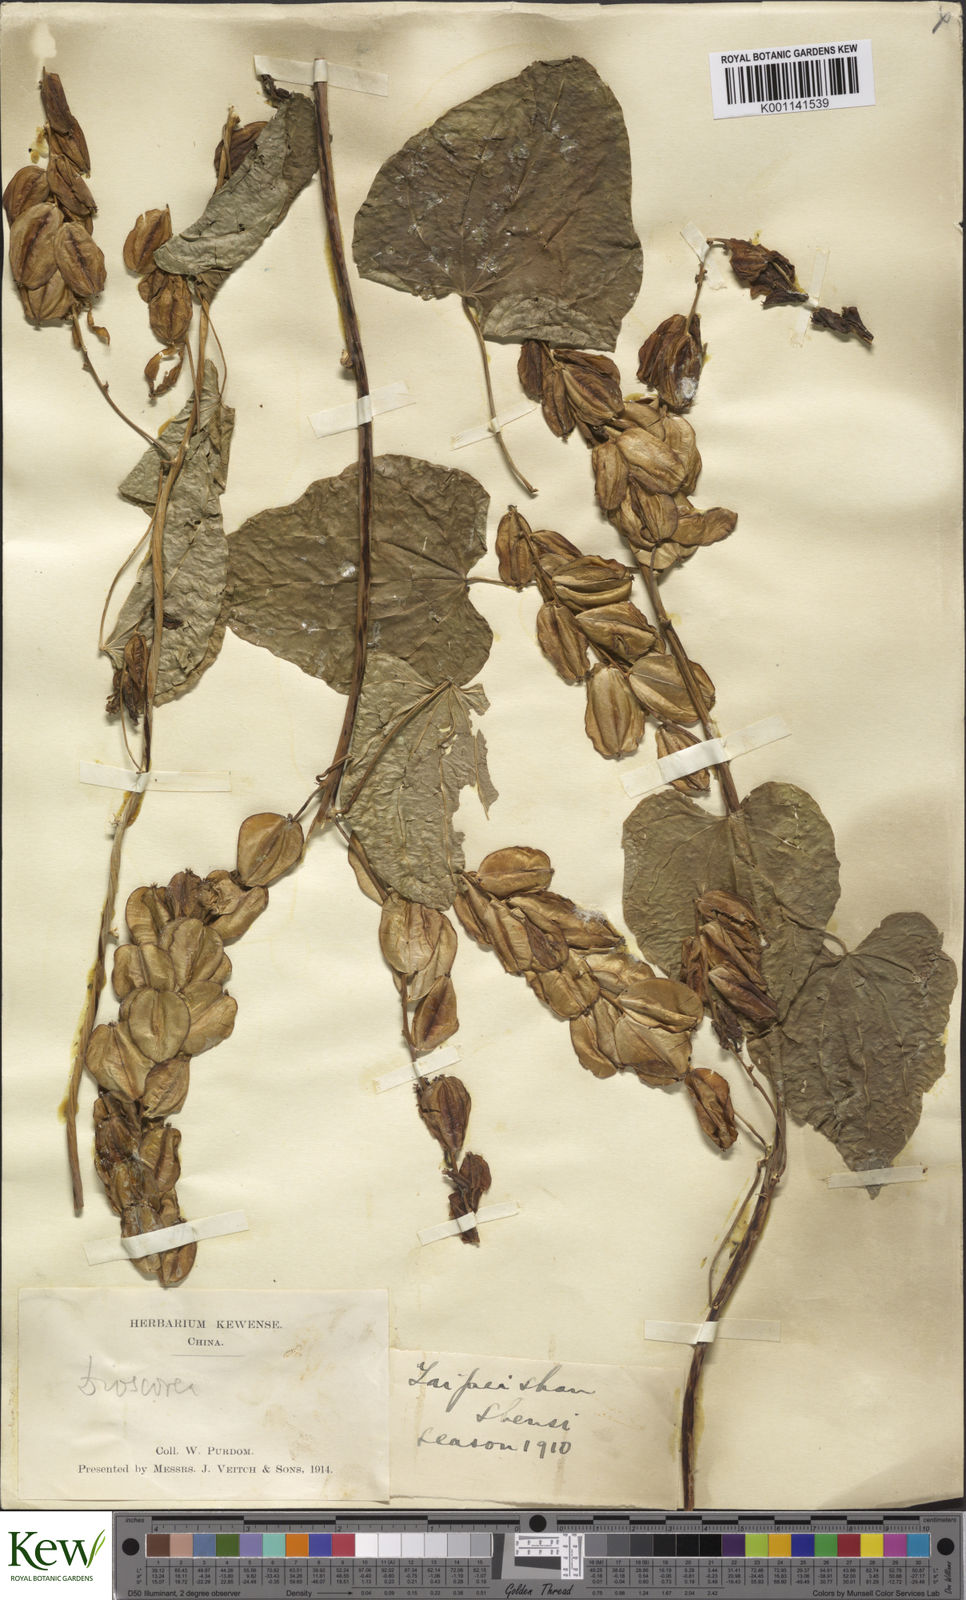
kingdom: Plantae
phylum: Tracheophyta
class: Liliopsida
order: Dioscoreales
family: Dioscoreaceae
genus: Dioscorea
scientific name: Dioscorea nipponica
